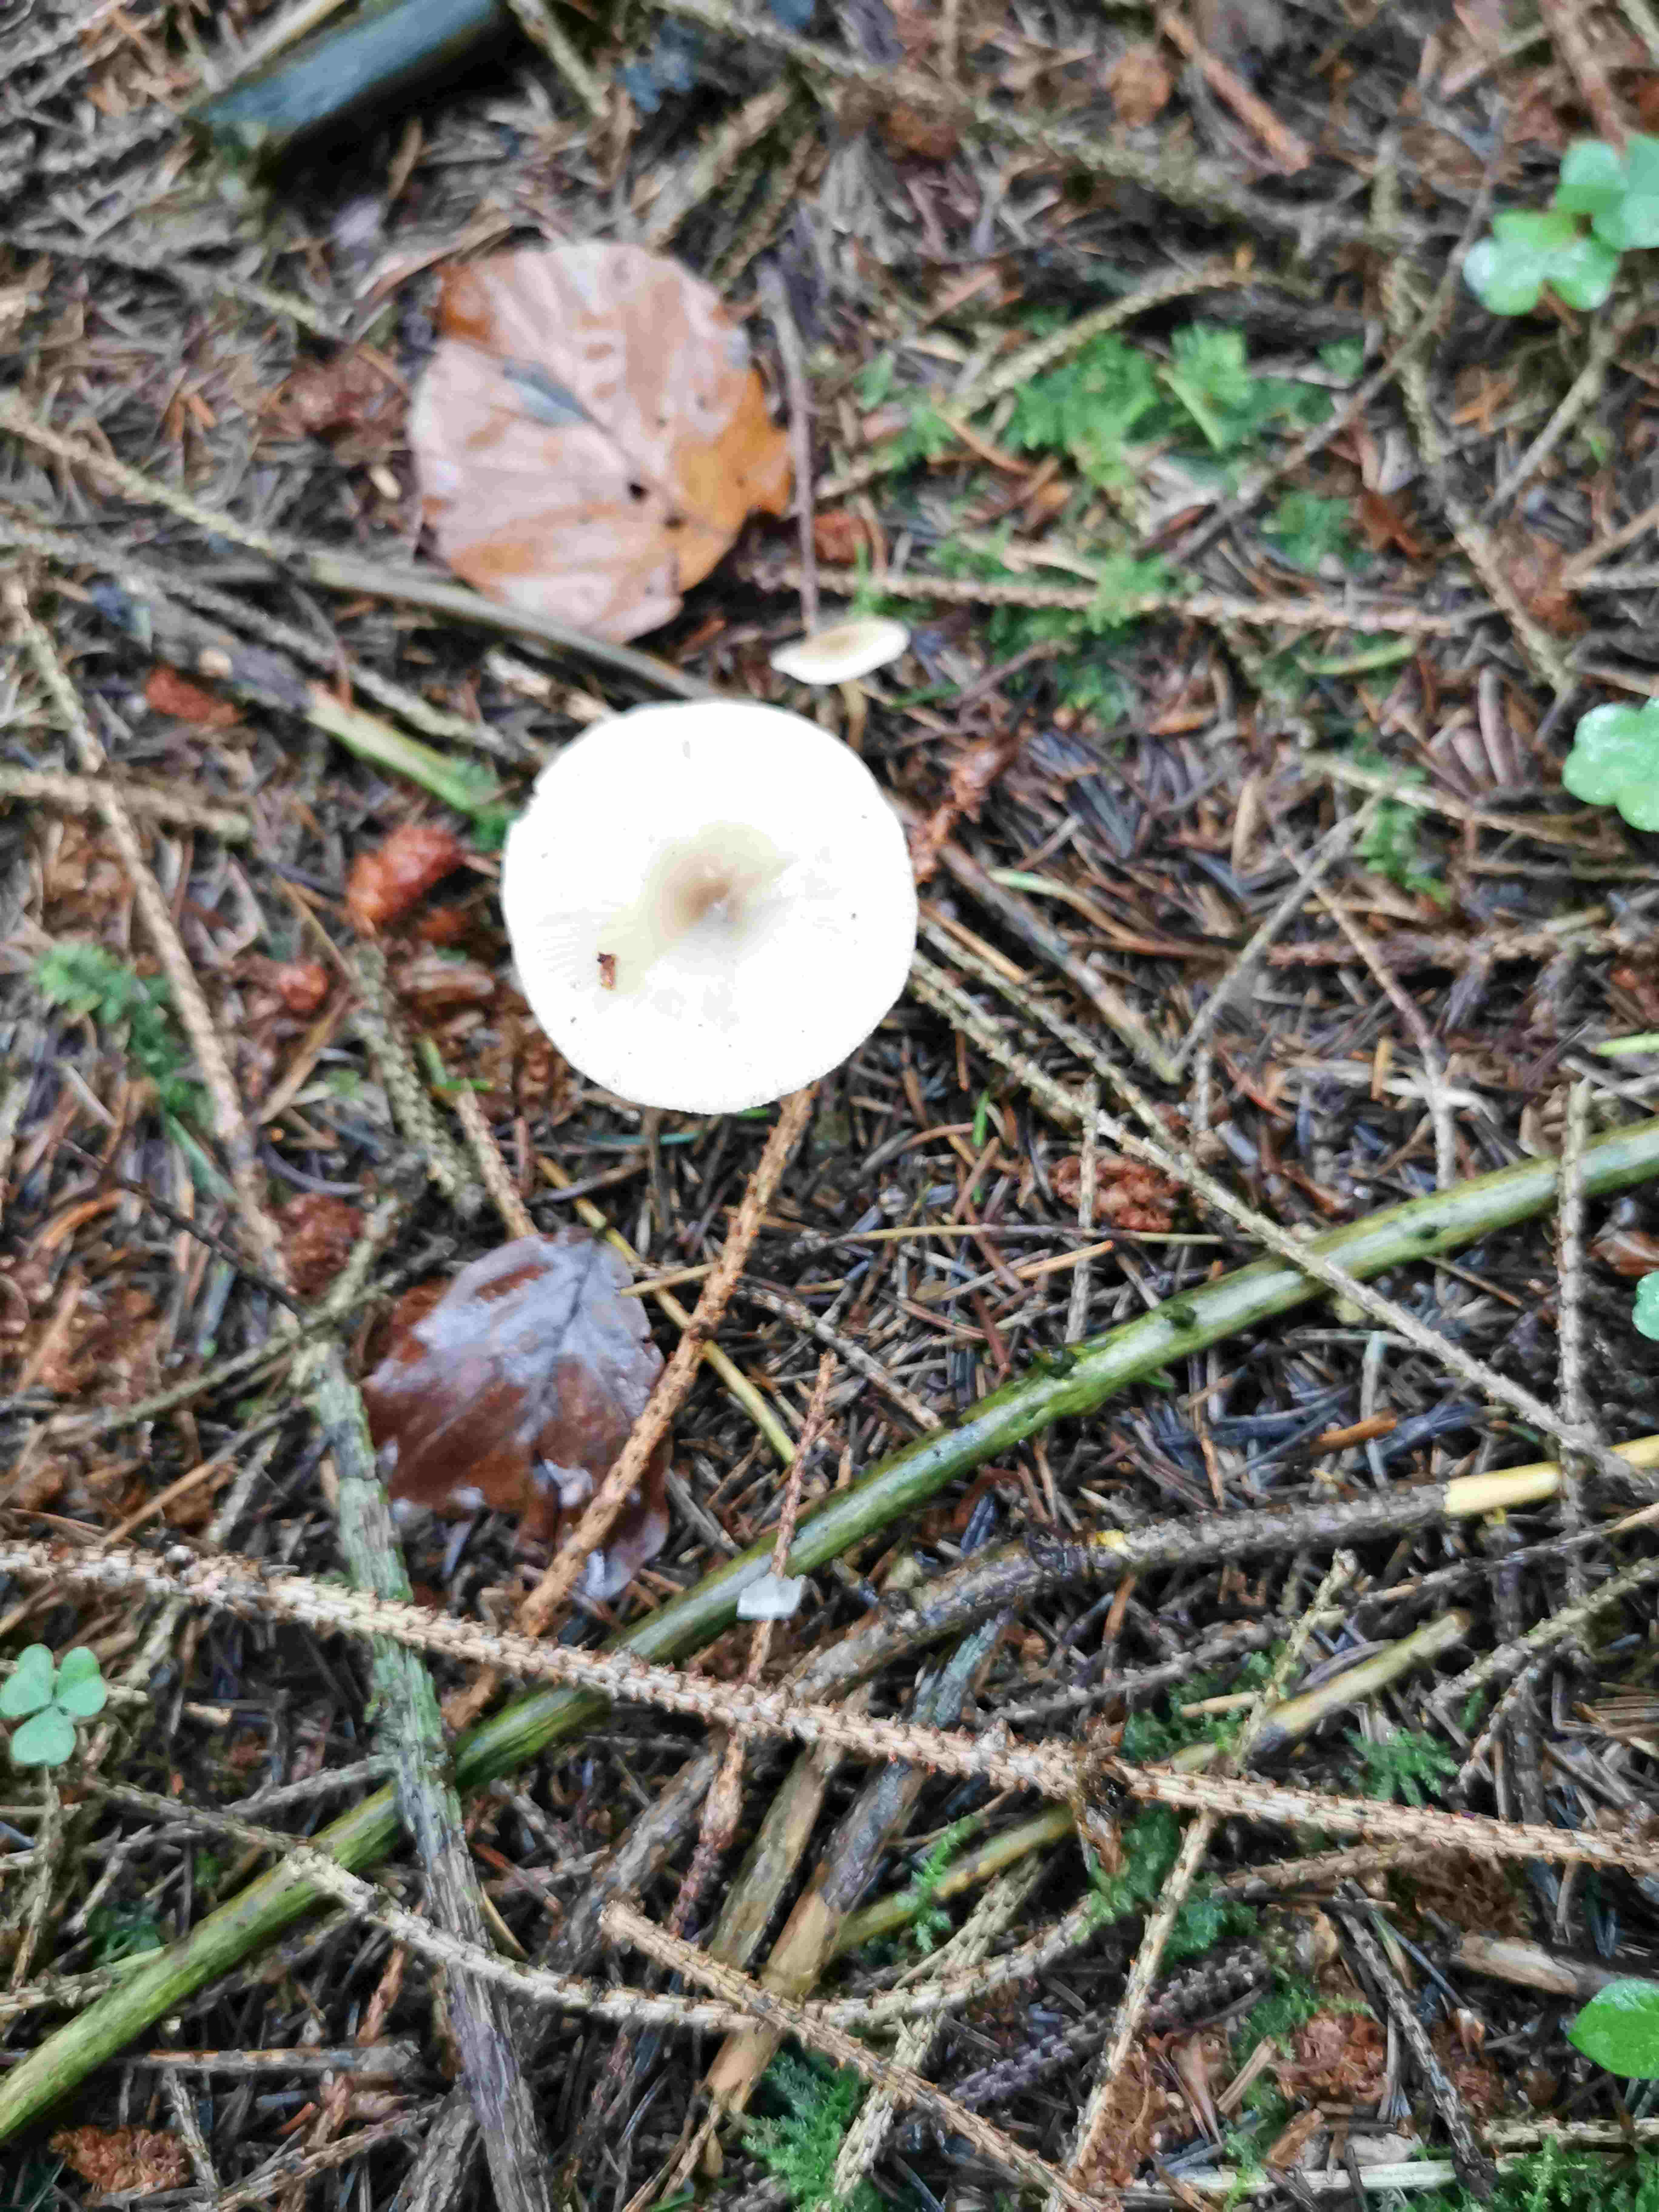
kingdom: Fungi
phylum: Basidiomycota
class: Agaricomycetes
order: Agaricales
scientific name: Agaricales
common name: champignonordenen
